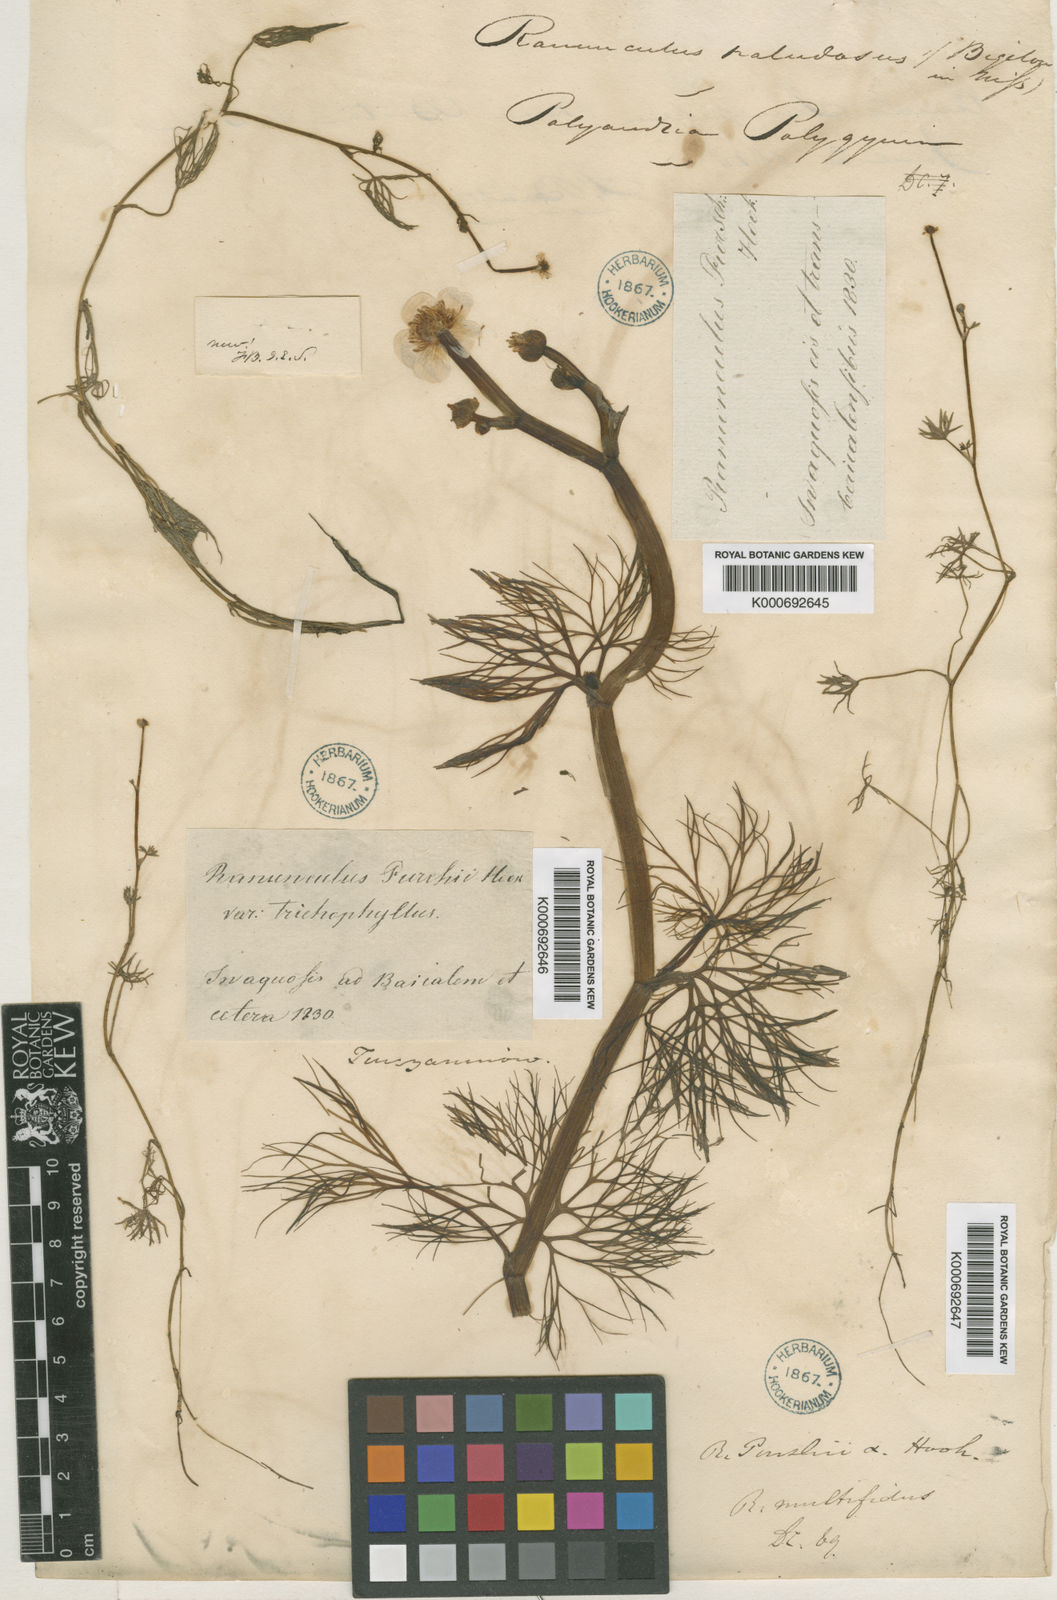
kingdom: Plantae
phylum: Tracheophyta
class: Magnoliopsida
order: Ranunculales
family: Ranunculaceae
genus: Ranunculus
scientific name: Ranunculus
